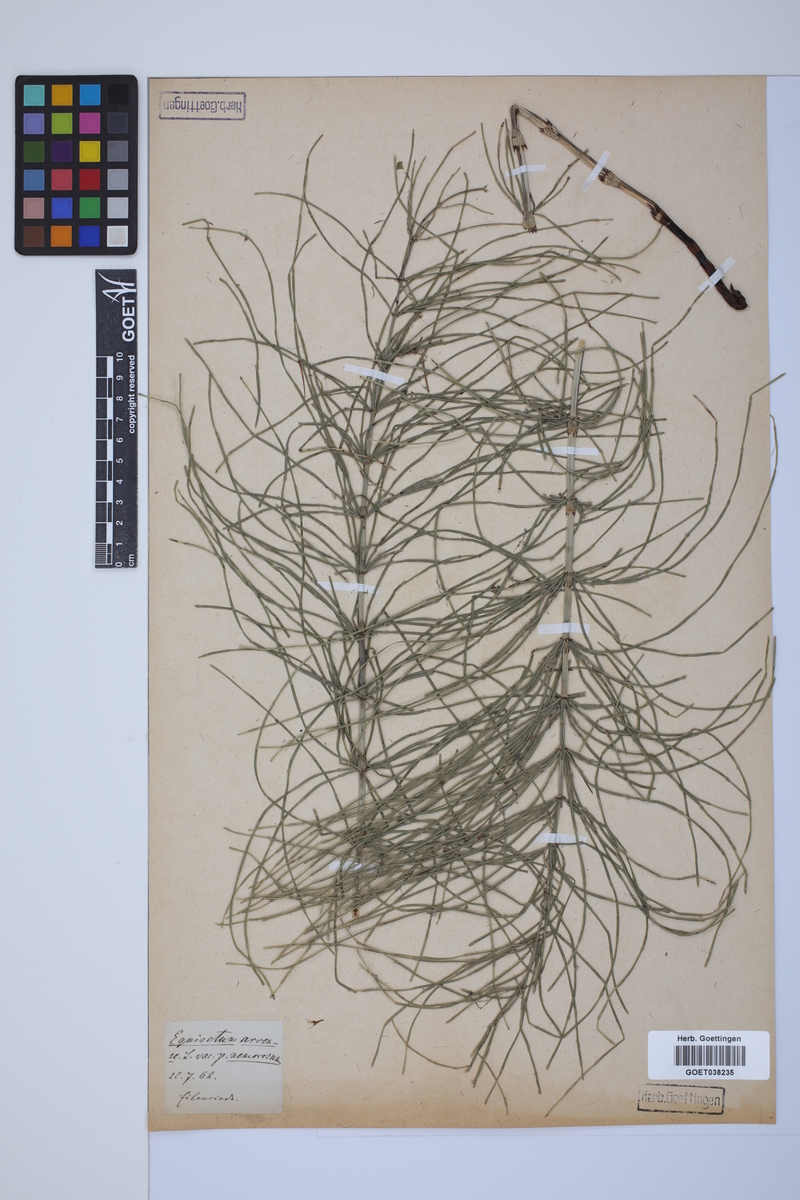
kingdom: Plantae
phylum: Tracheophyta
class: Polypodiopsida
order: Equisetales
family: Equisetaceae
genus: Equisetum
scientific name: Equisetum arvense
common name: Field horsetail
